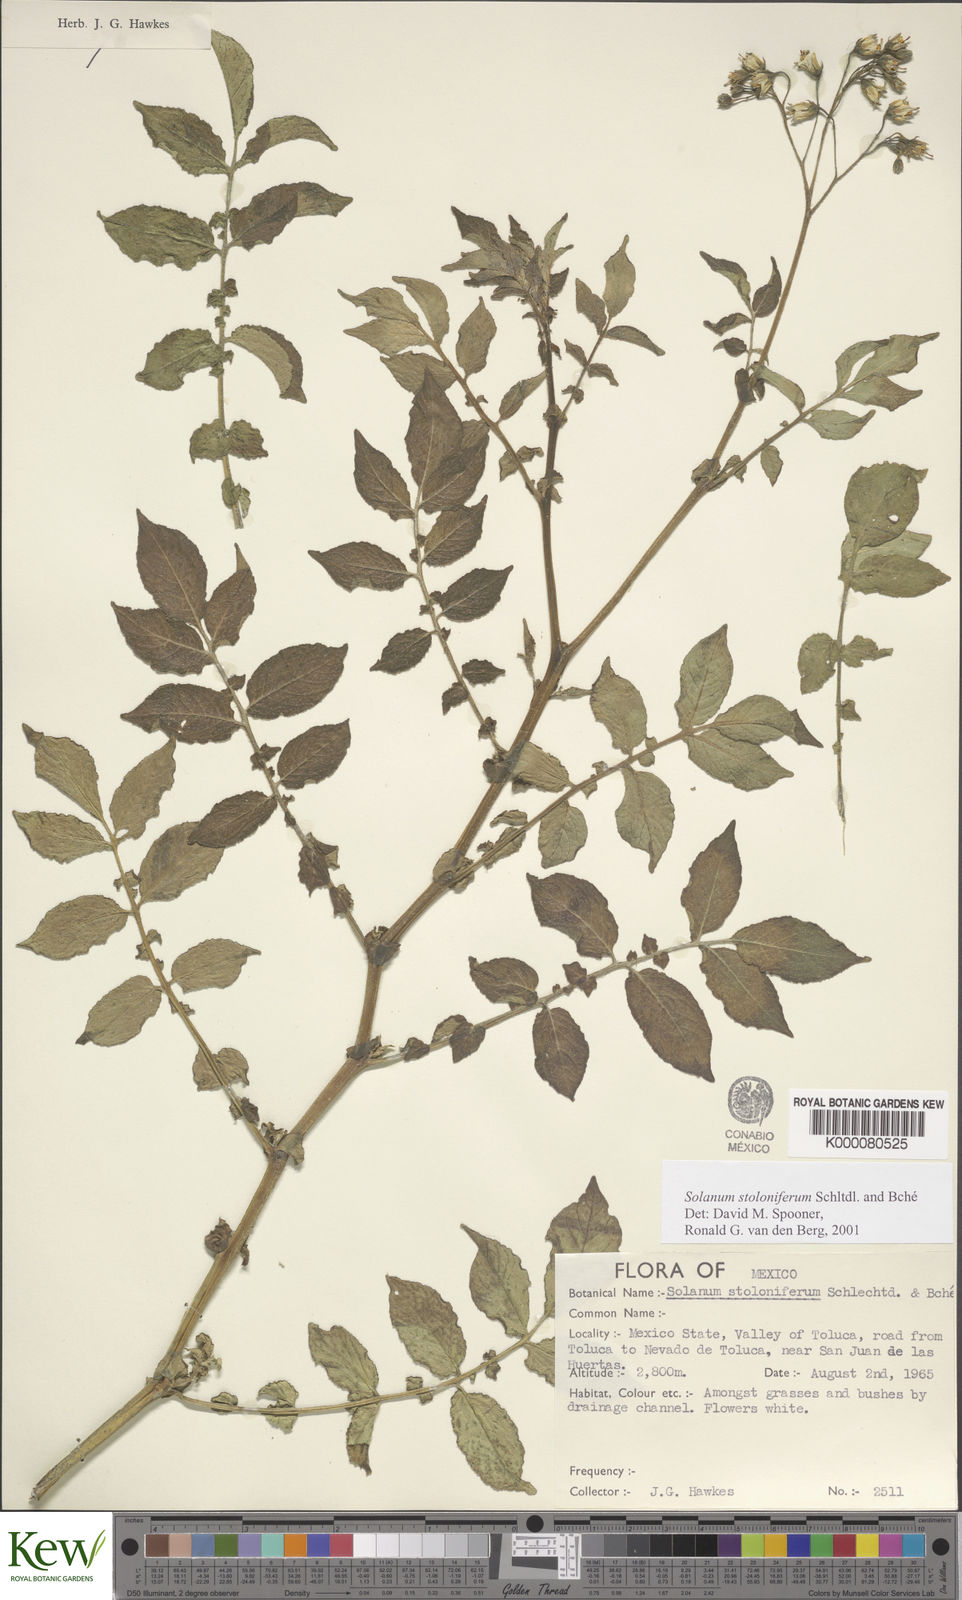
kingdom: Plantae
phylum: Tracheophyta
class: Magnoliopsida
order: Solanales
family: Solanaceae
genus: Solanum
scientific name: Solanum stoloniferum
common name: Fendler's nighshade
